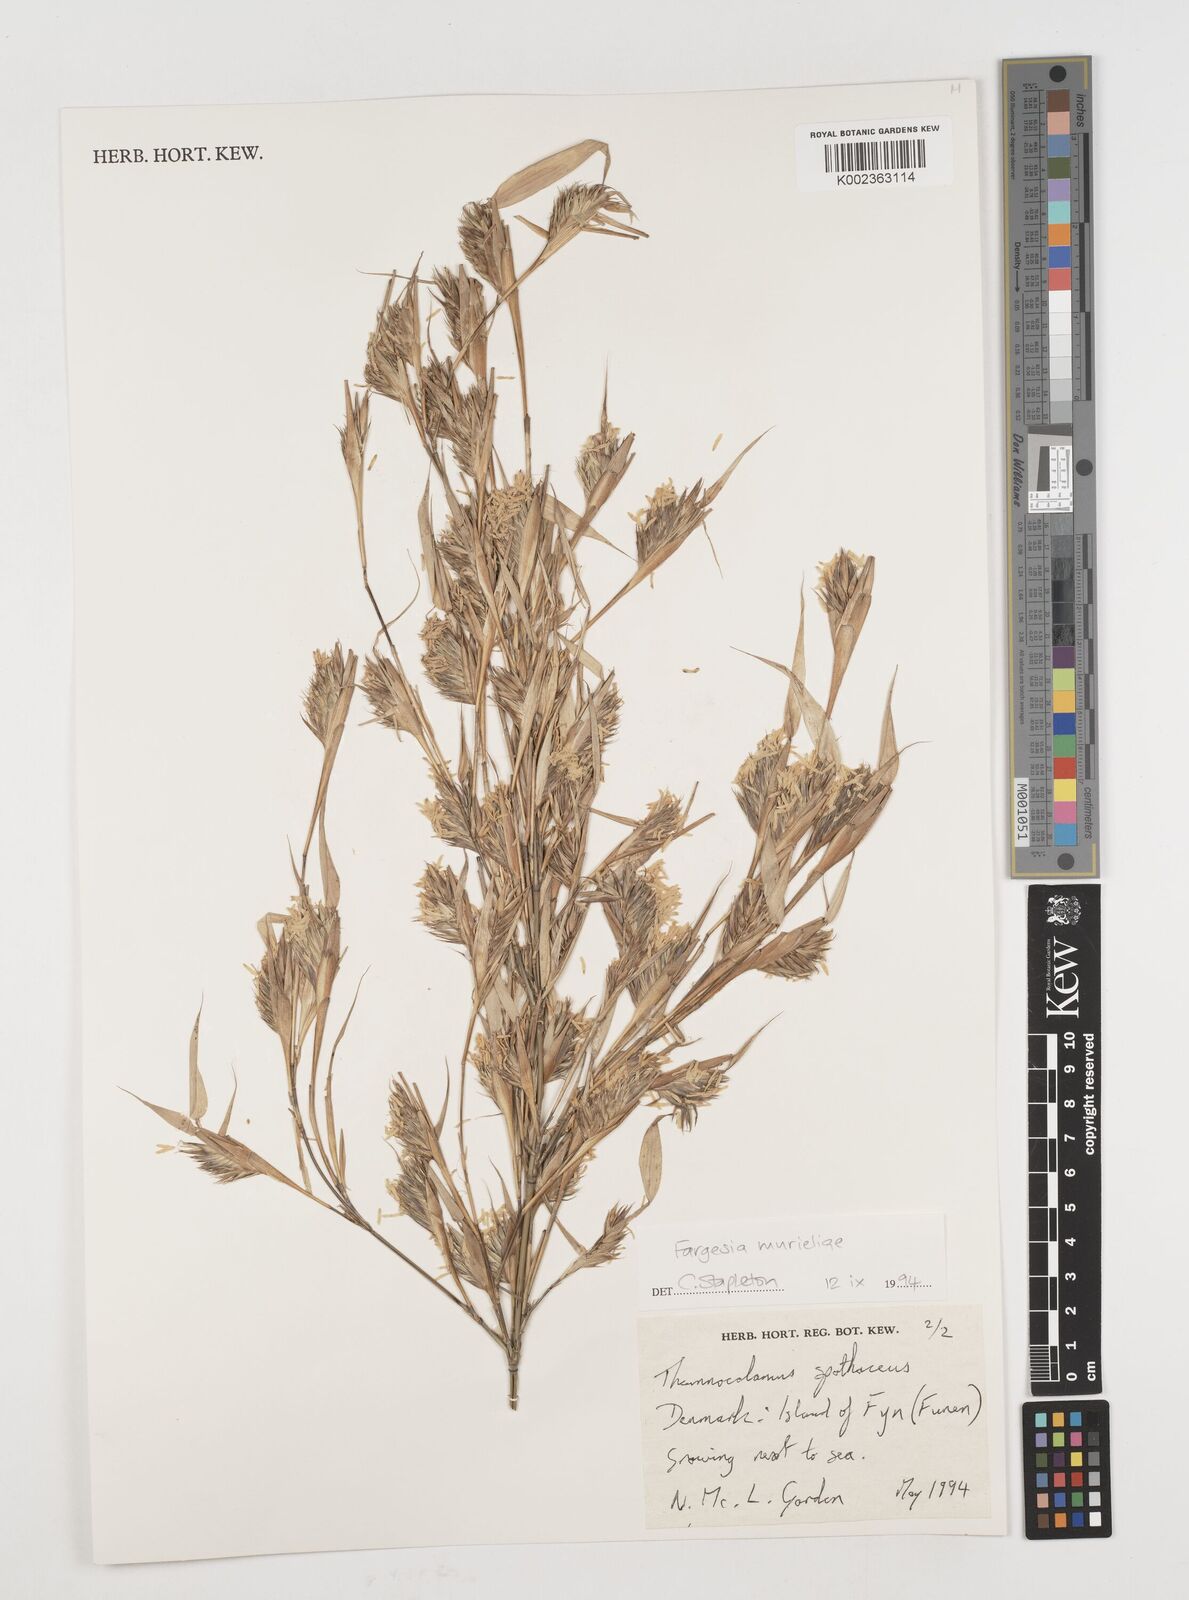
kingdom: Plantae
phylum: Tracheophyta
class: Liliopsida
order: Poales
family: Poaceae
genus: Fargesia
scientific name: Fargesia murielae
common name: Umbrella bamboo
